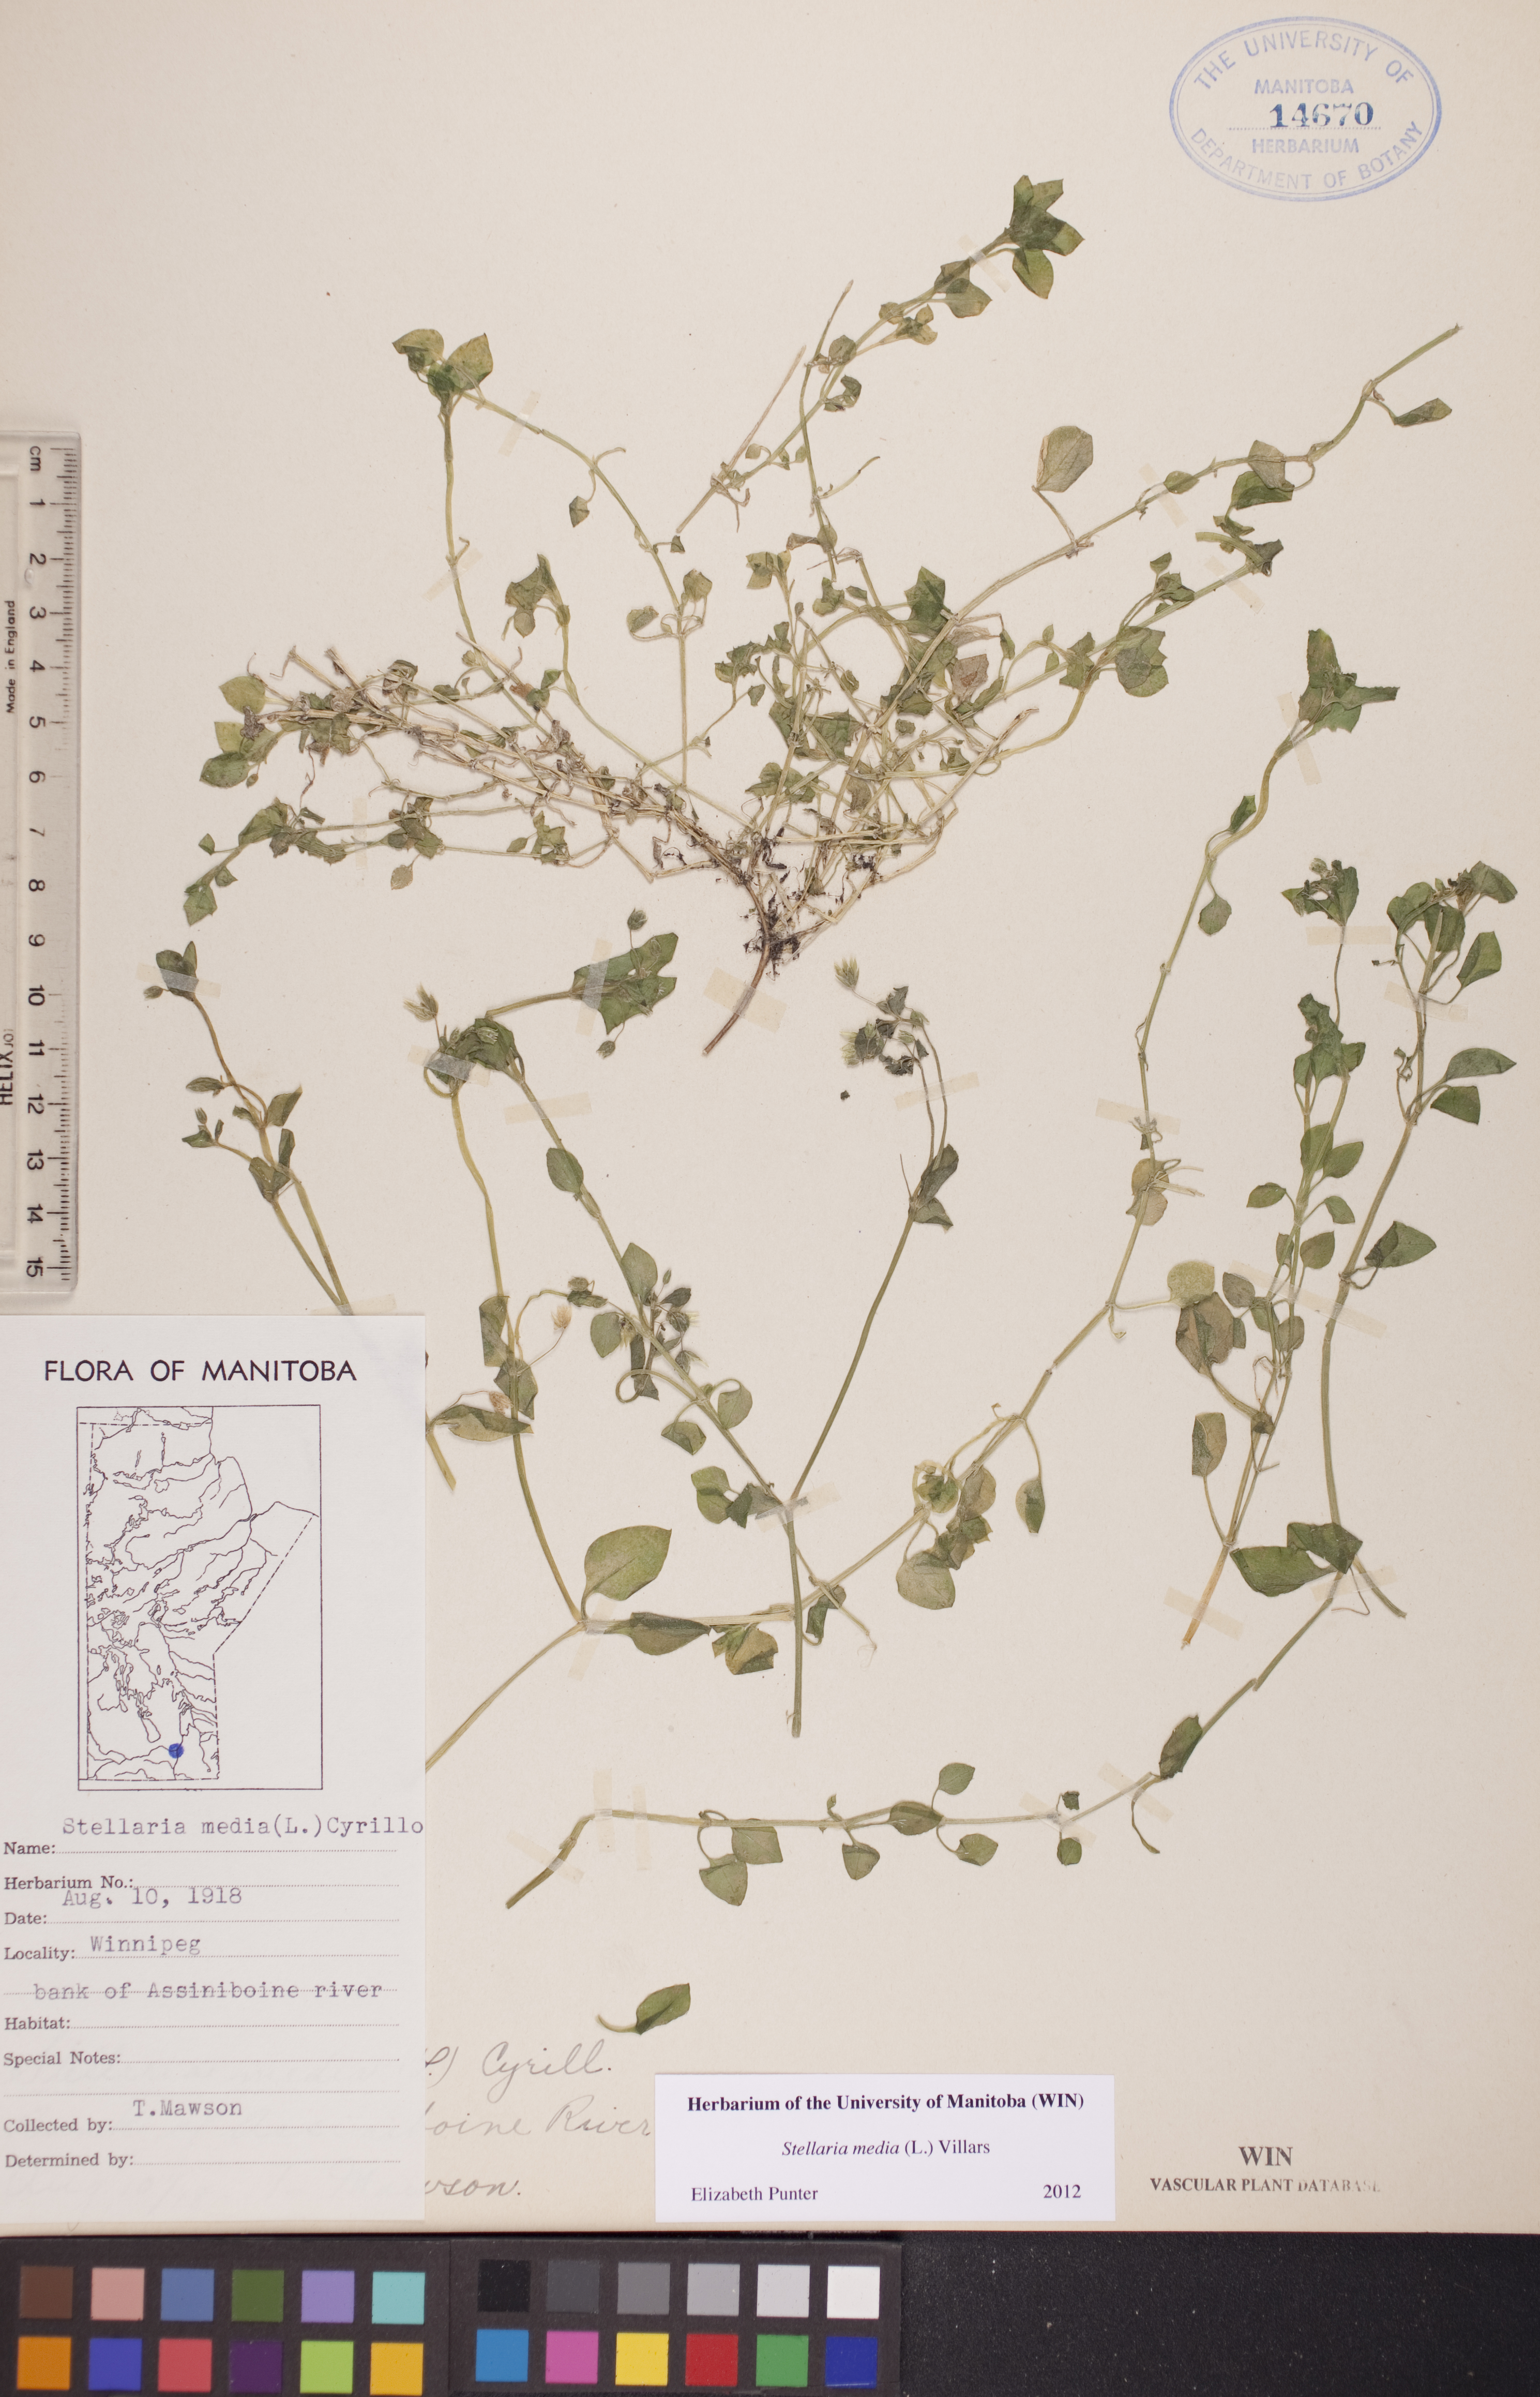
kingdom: Plantae
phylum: Tracheophyta
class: Magnoliopsida
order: Caryophyllales
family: Caryophyllaceae
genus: Stellaria
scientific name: Stellaria media
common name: Common chickweed
